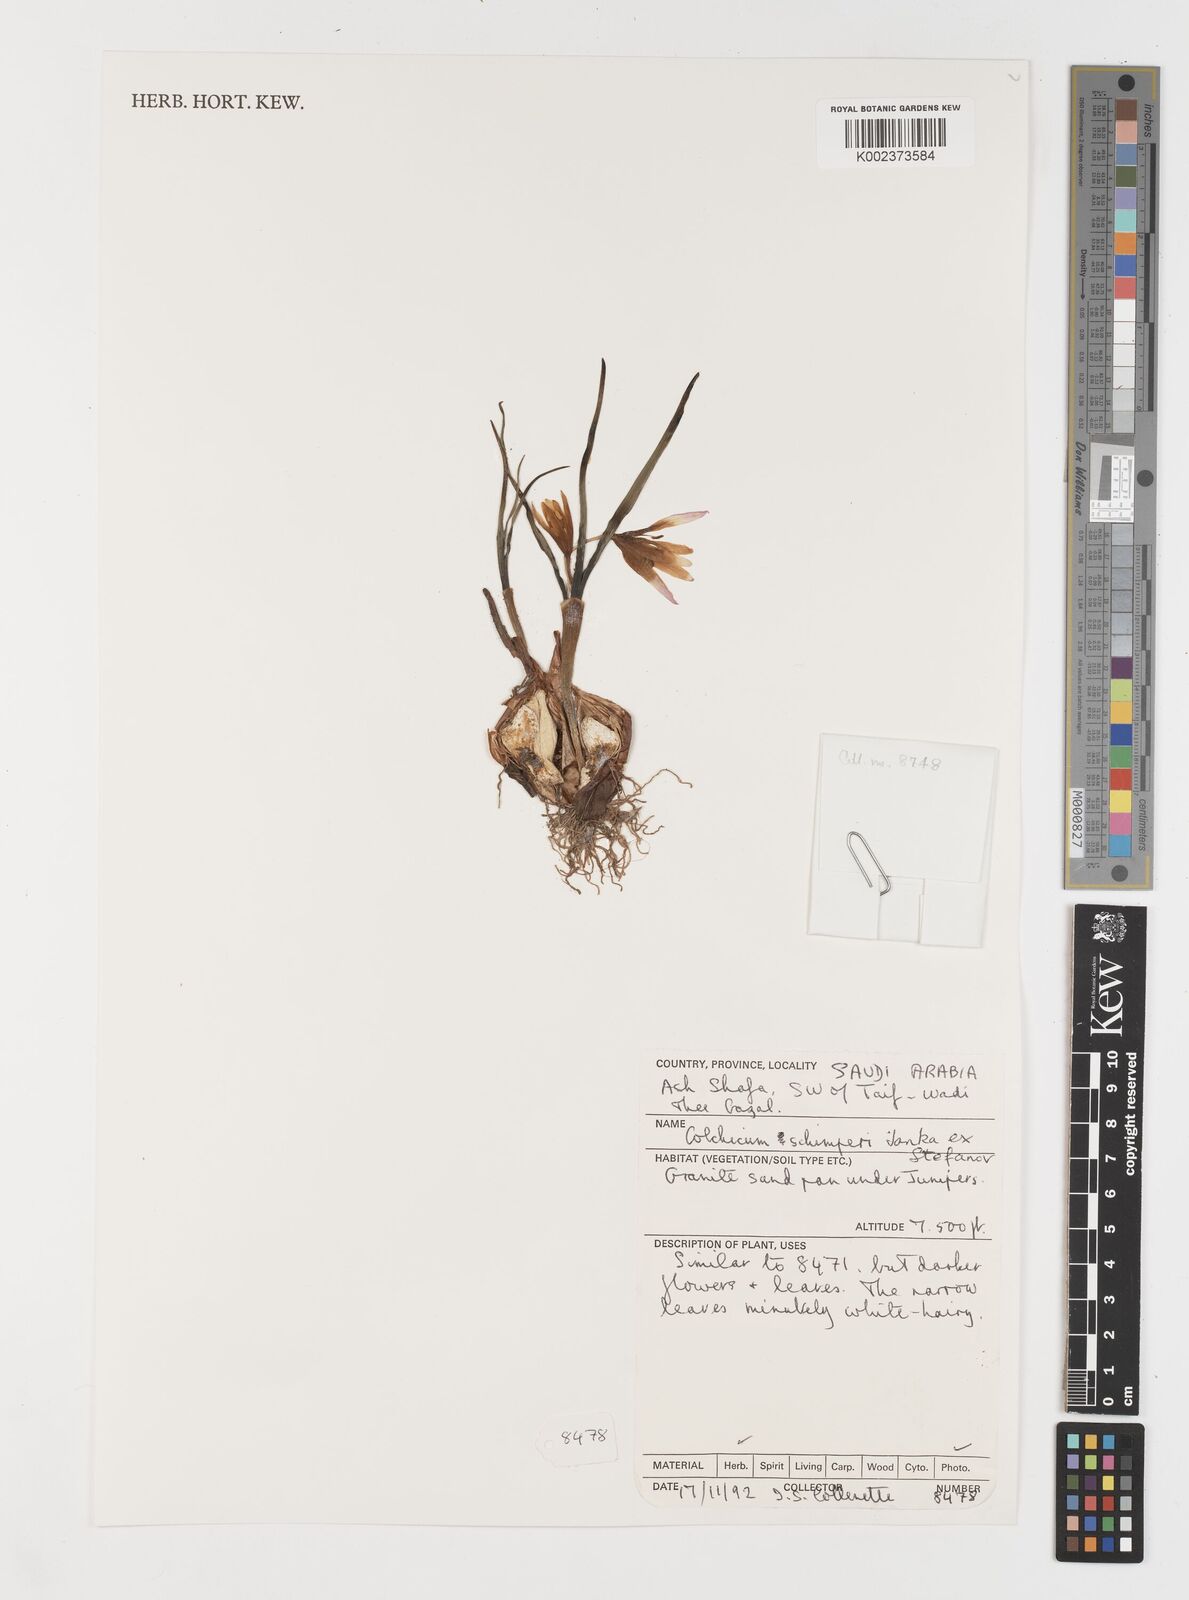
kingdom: Plantae
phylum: Tracheophyta
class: Liliopsida
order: Liliales
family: Colchicaceae
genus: Colchicum
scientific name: Colchicum schimperi
